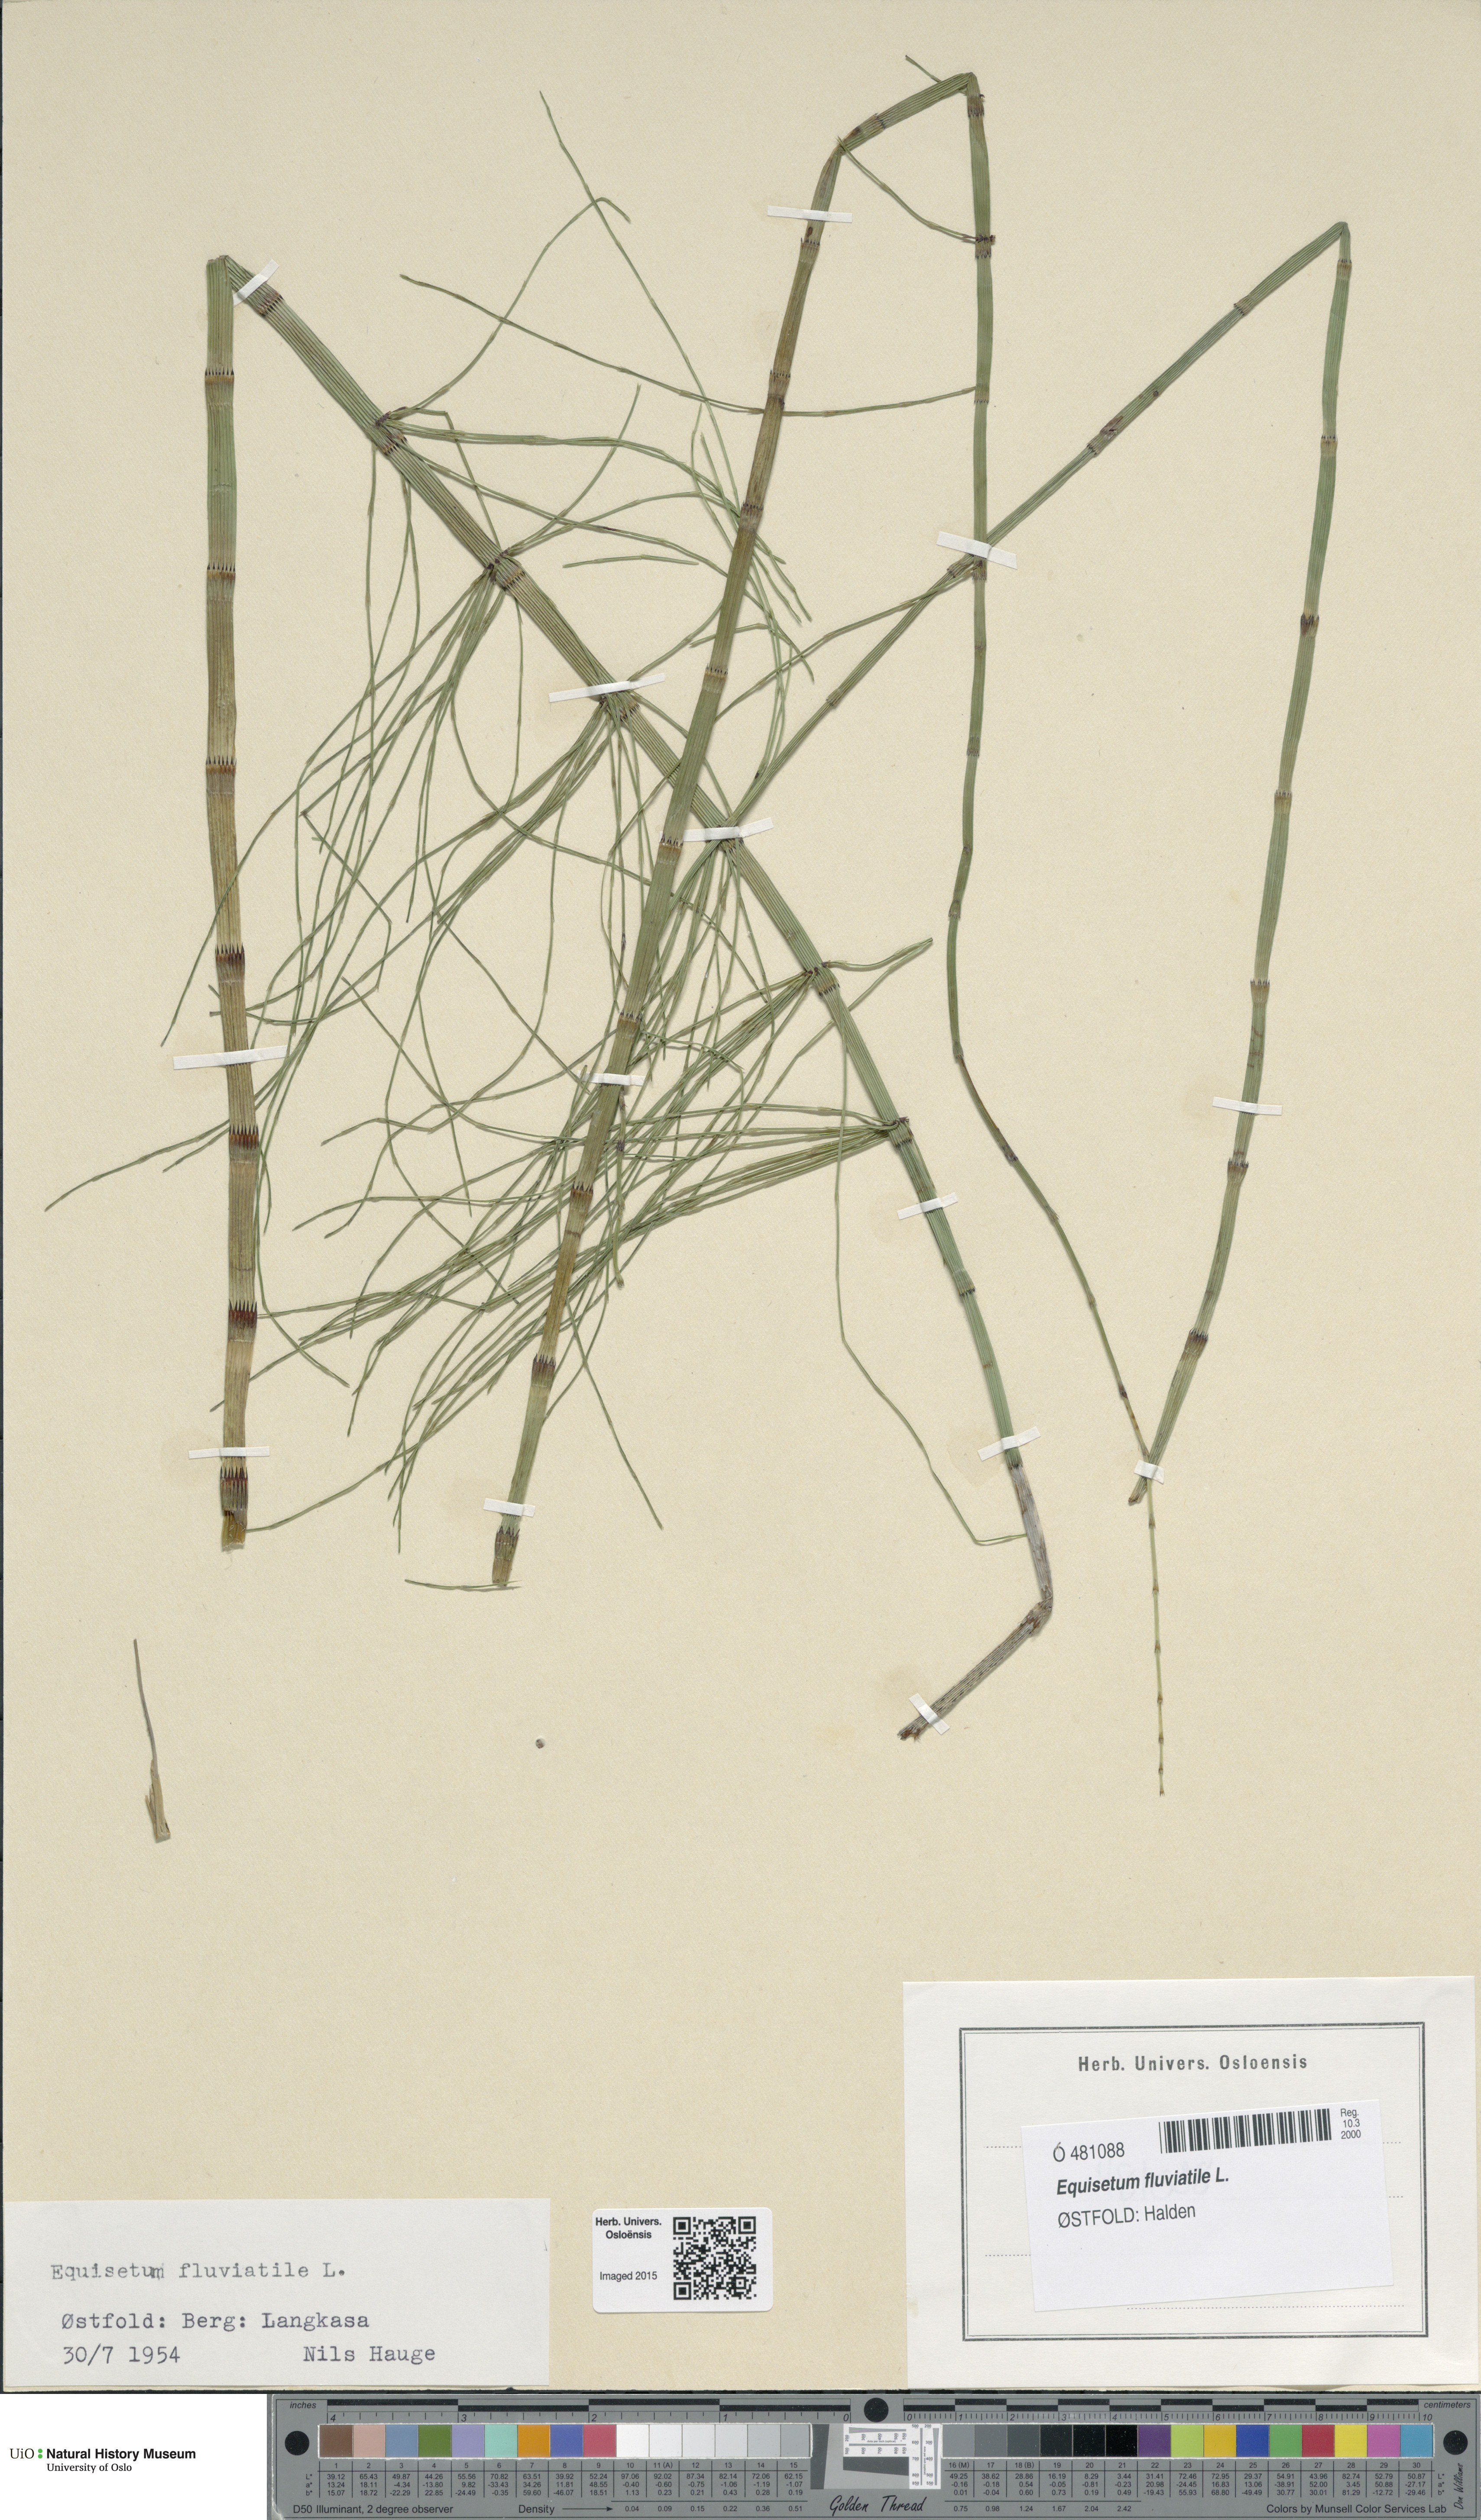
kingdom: Plantae
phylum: Tracheophyta
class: Polypodiopsida
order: Equisetales
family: Equisetaceae
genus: Equisetum
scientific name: Equisetum fluviatile
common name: Water horsetail
